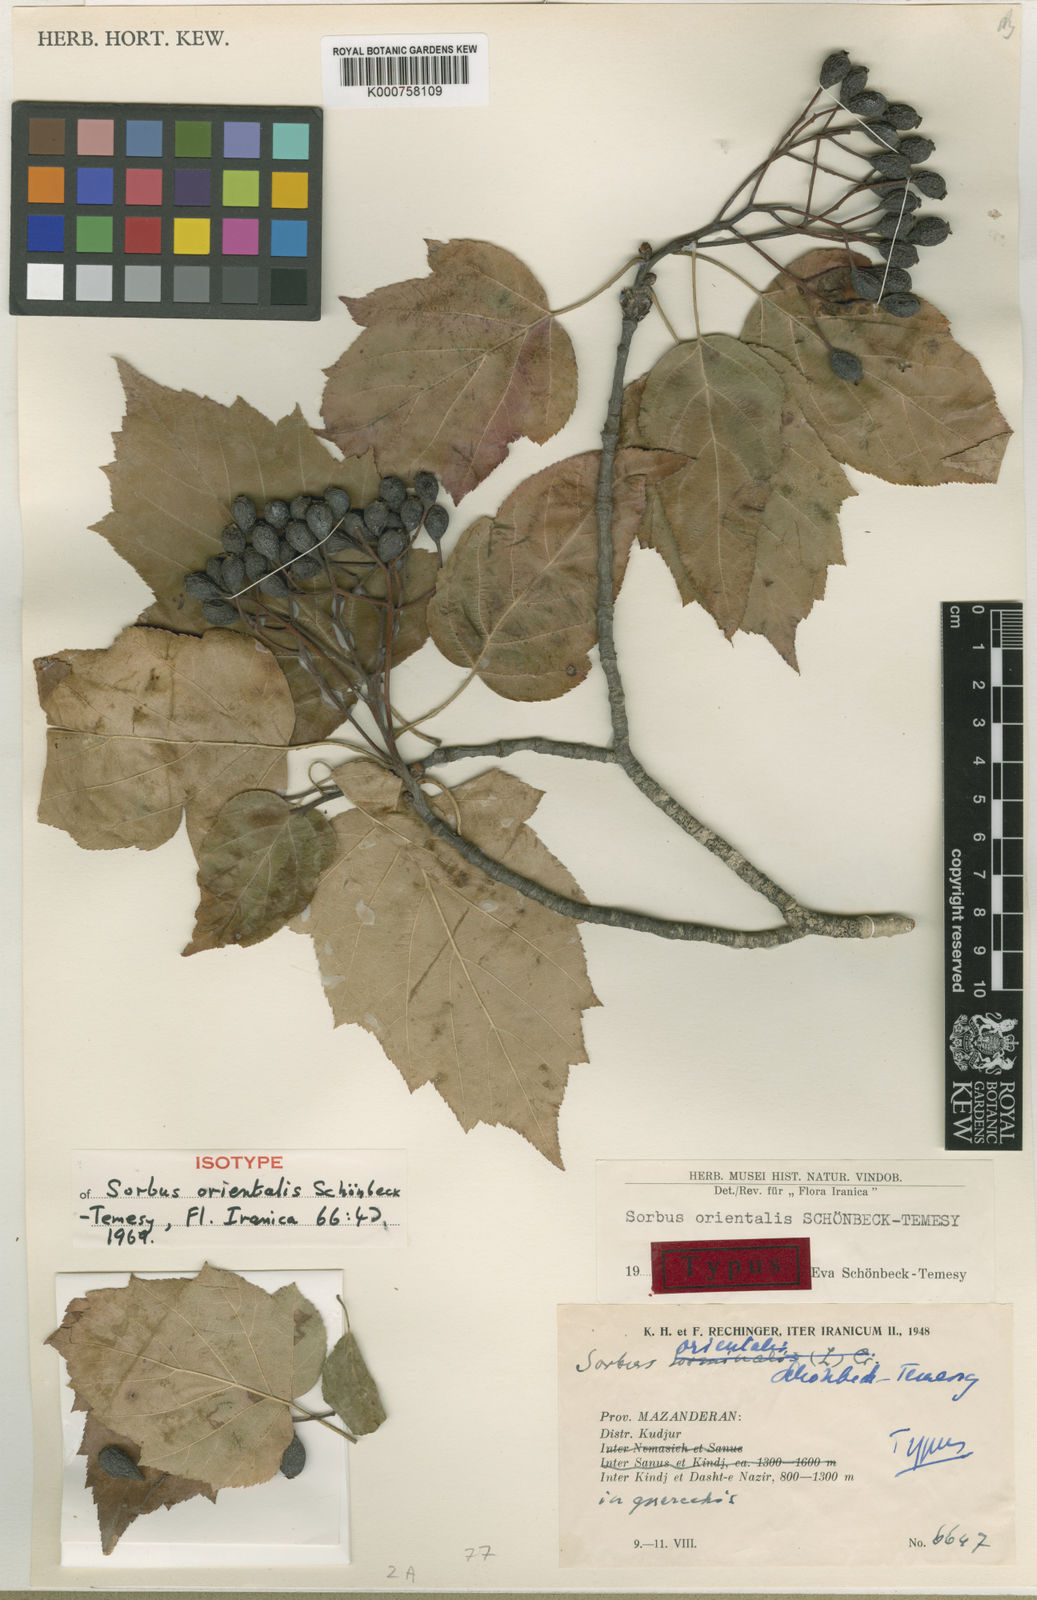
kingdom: Plantae
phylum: Tracheophyta
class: Magnoliopsida
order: Rosales
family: Rosaceae
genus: Sorbus
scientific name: Sorbus
